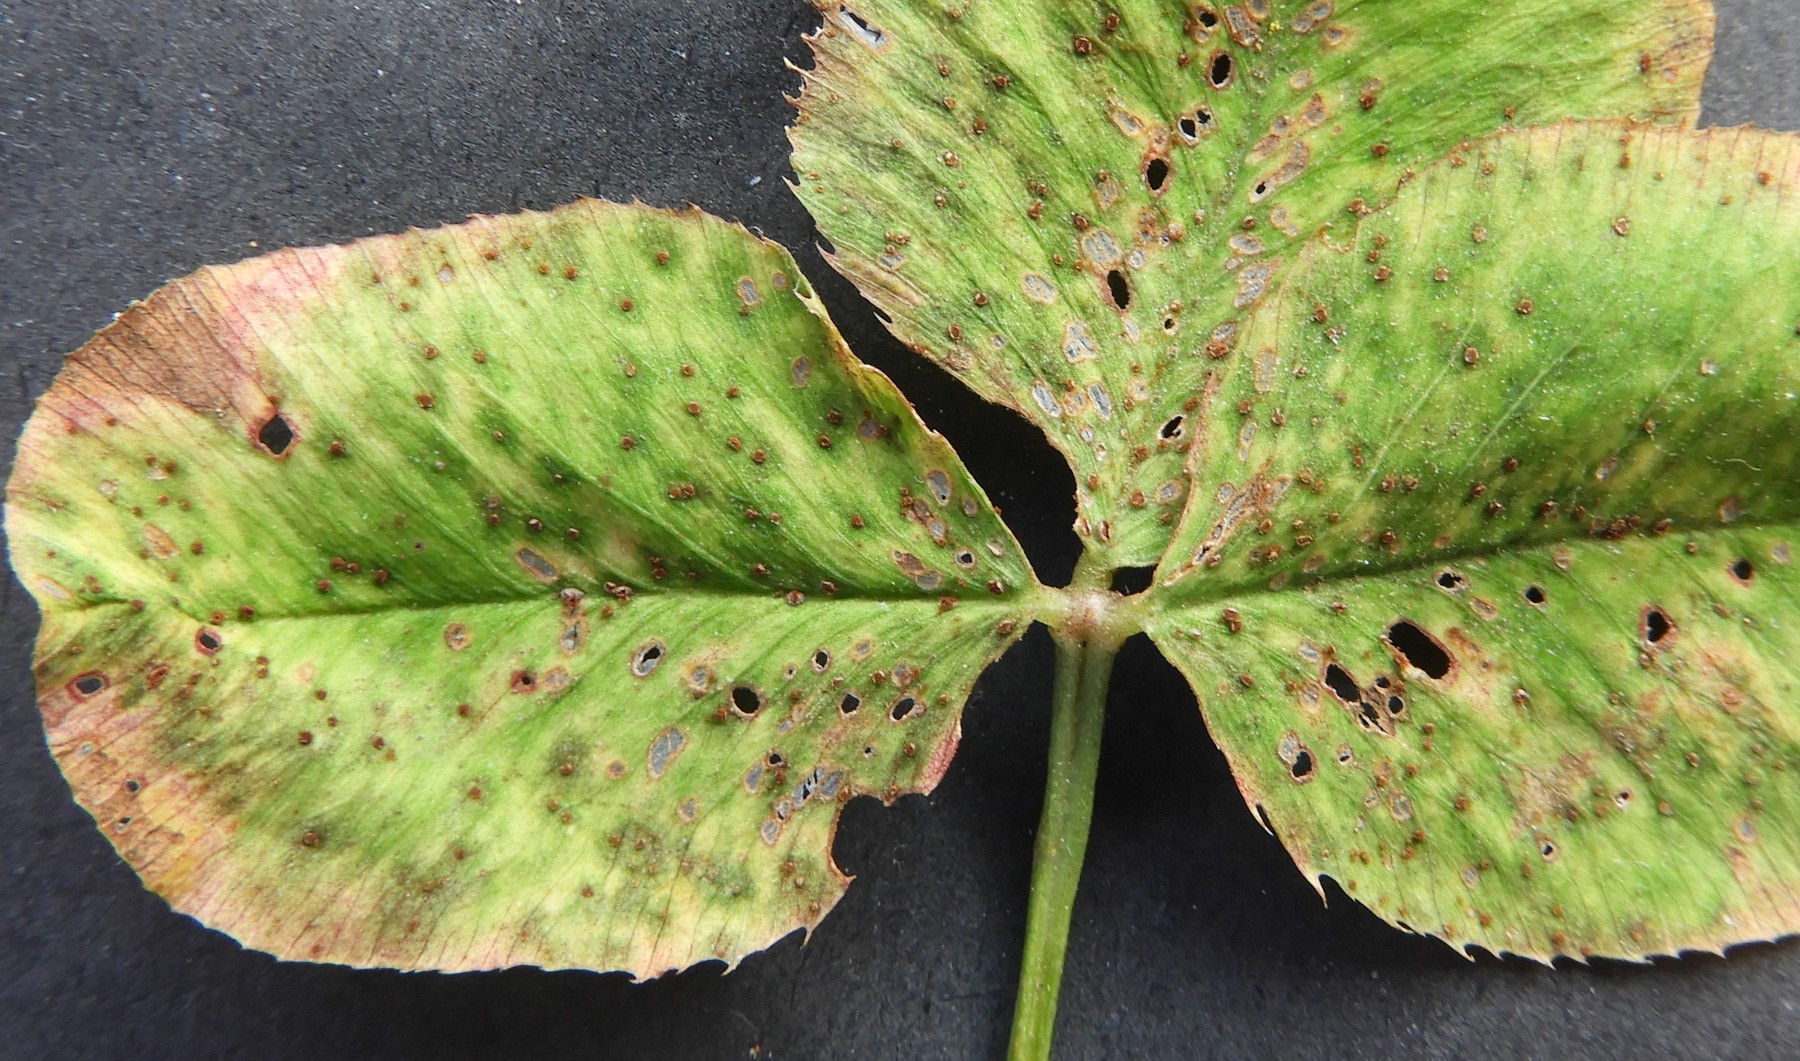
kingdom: Fungi
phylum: Basidiomycota
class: Pucciniomycetes
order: Pucciniales
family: Pucciniaceae
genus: Uromyces
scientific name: Uromyces
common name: encellerust
